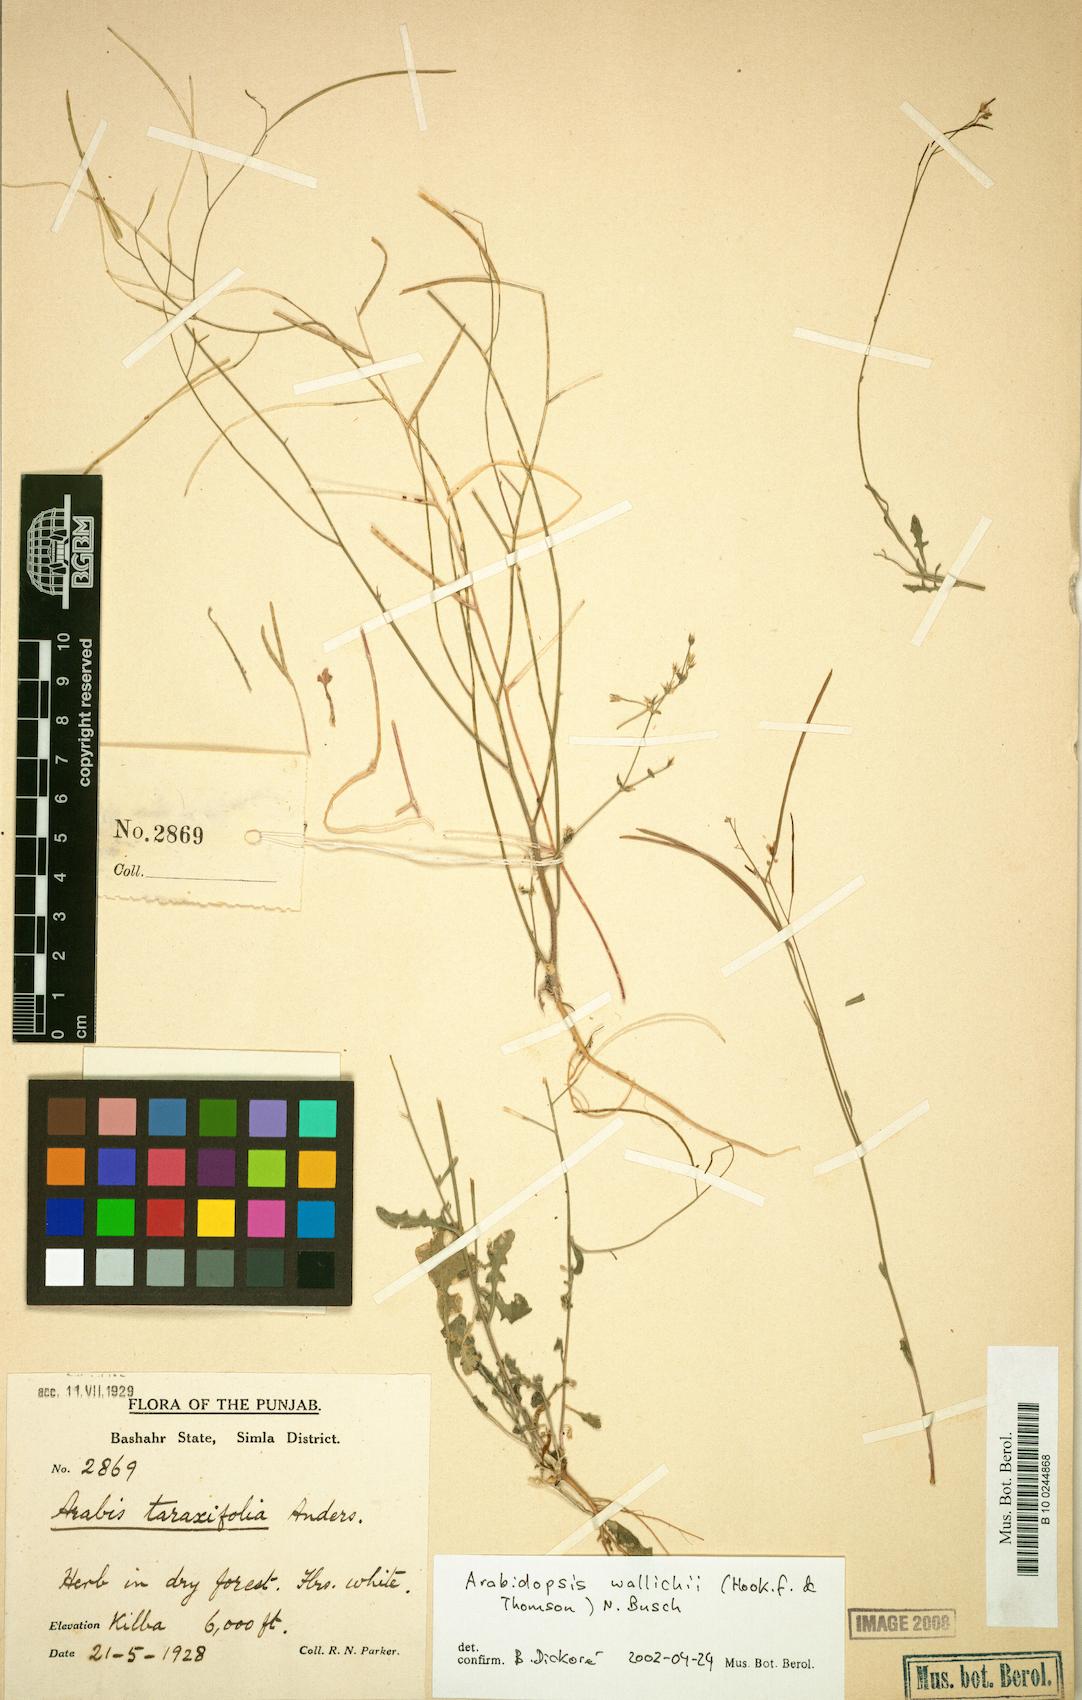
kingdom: Plantae
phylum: Tracheophyta
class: Magnoliopsida
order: Brassicales
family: Brassicaceae
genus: Crucihimalaya
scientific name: Crucihimalaya wallichii
